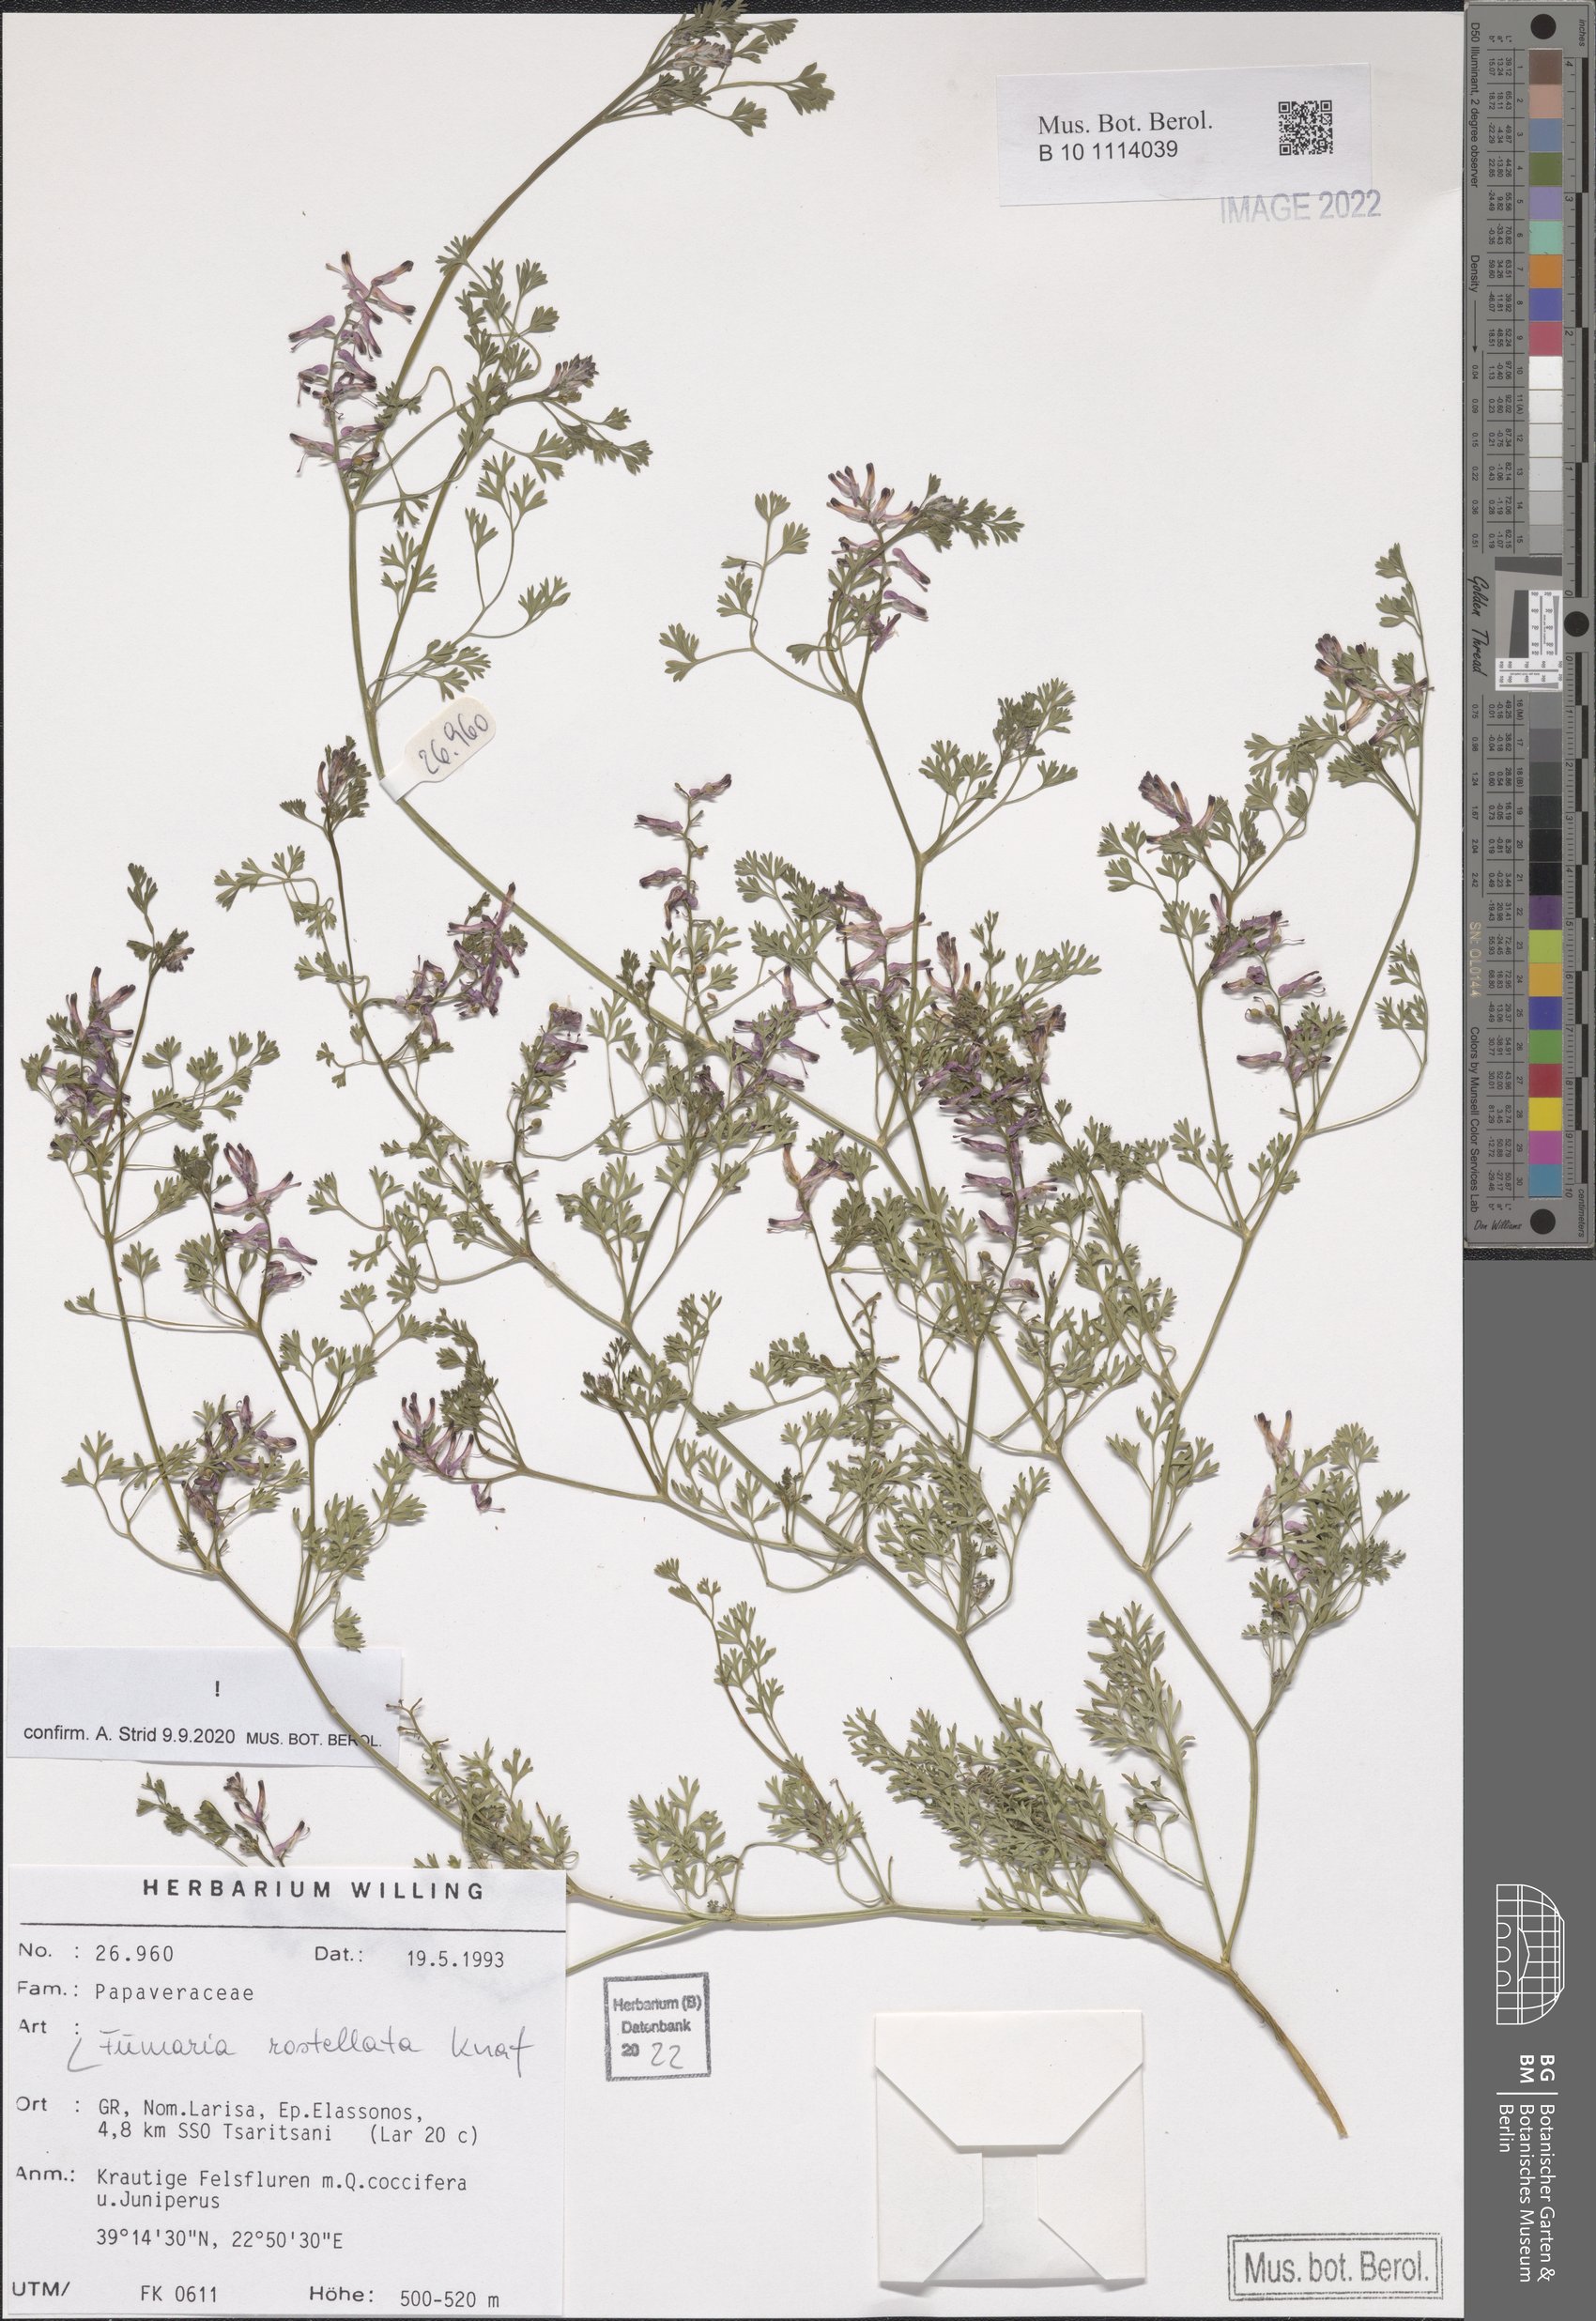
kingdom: Plantae
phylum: Tracheophyta
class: Magnoliopsida
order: Ranunculales
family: Papaveraceae
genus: Fumaria
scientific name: Fumaria rostellata
